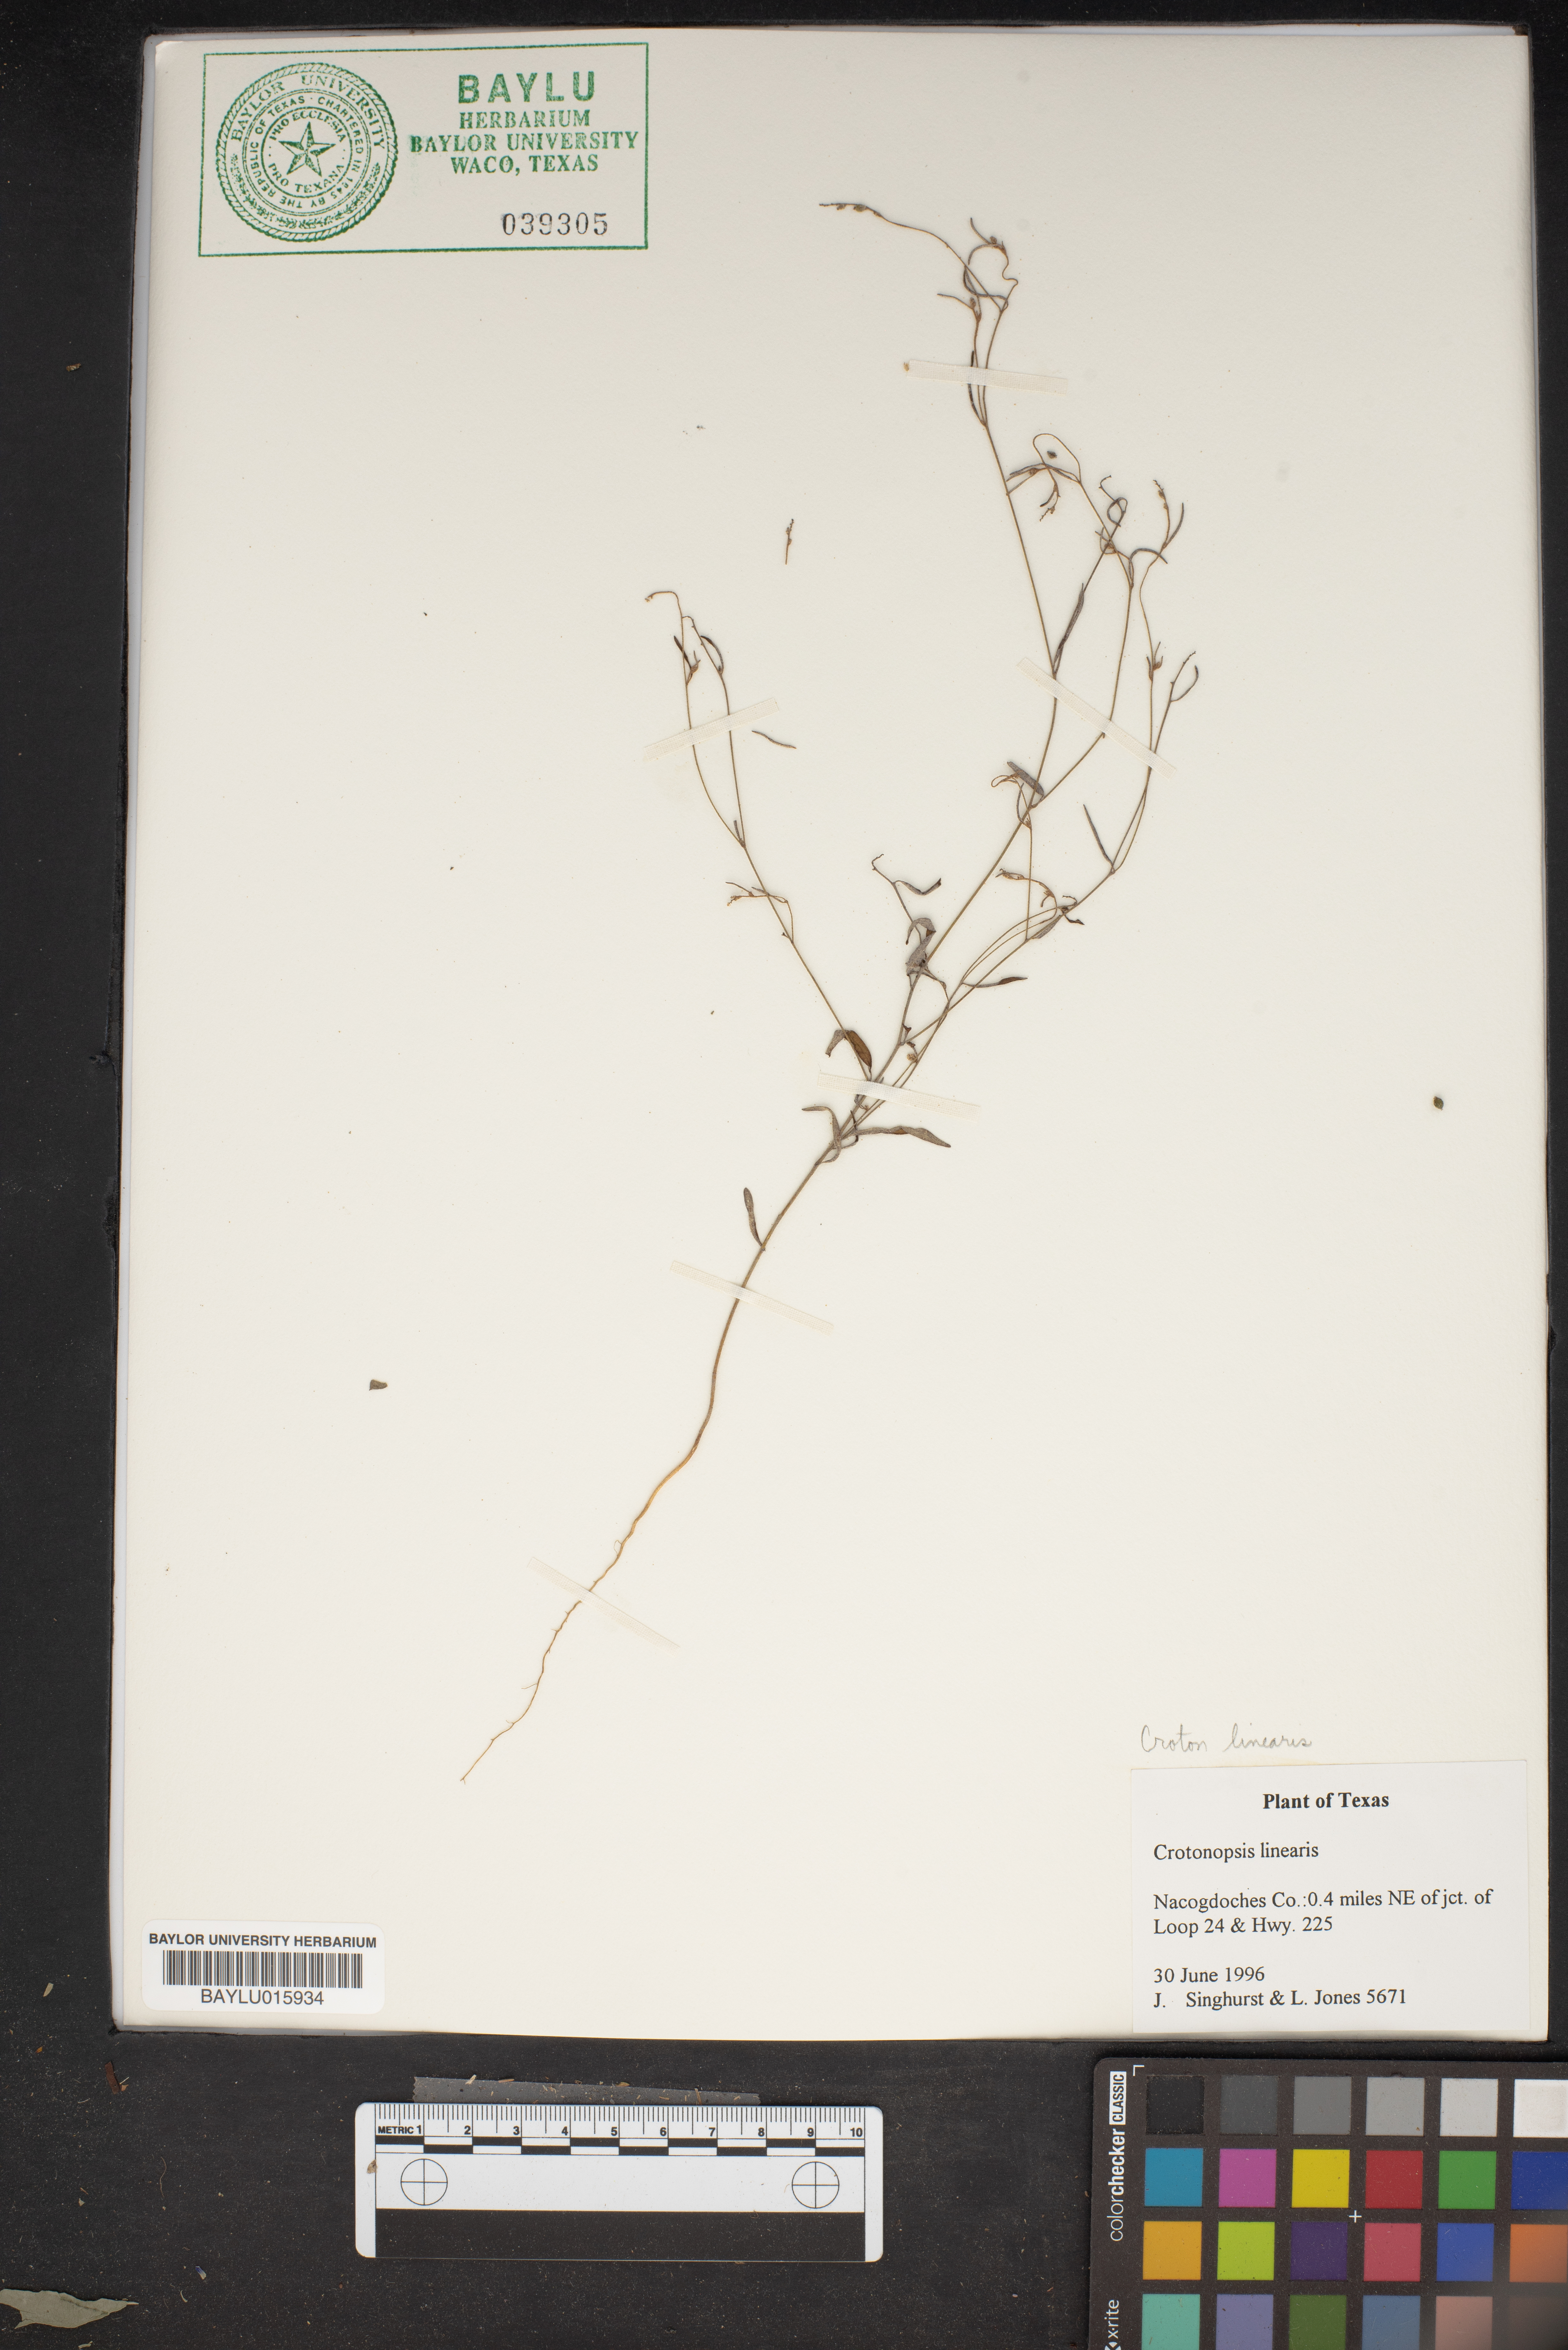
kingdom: Plantae
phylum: Tracheophyta
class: Magnoliopsida
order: Malpighiales
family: Euphorbiaceae
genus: Croton
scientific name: Croton michauxii
